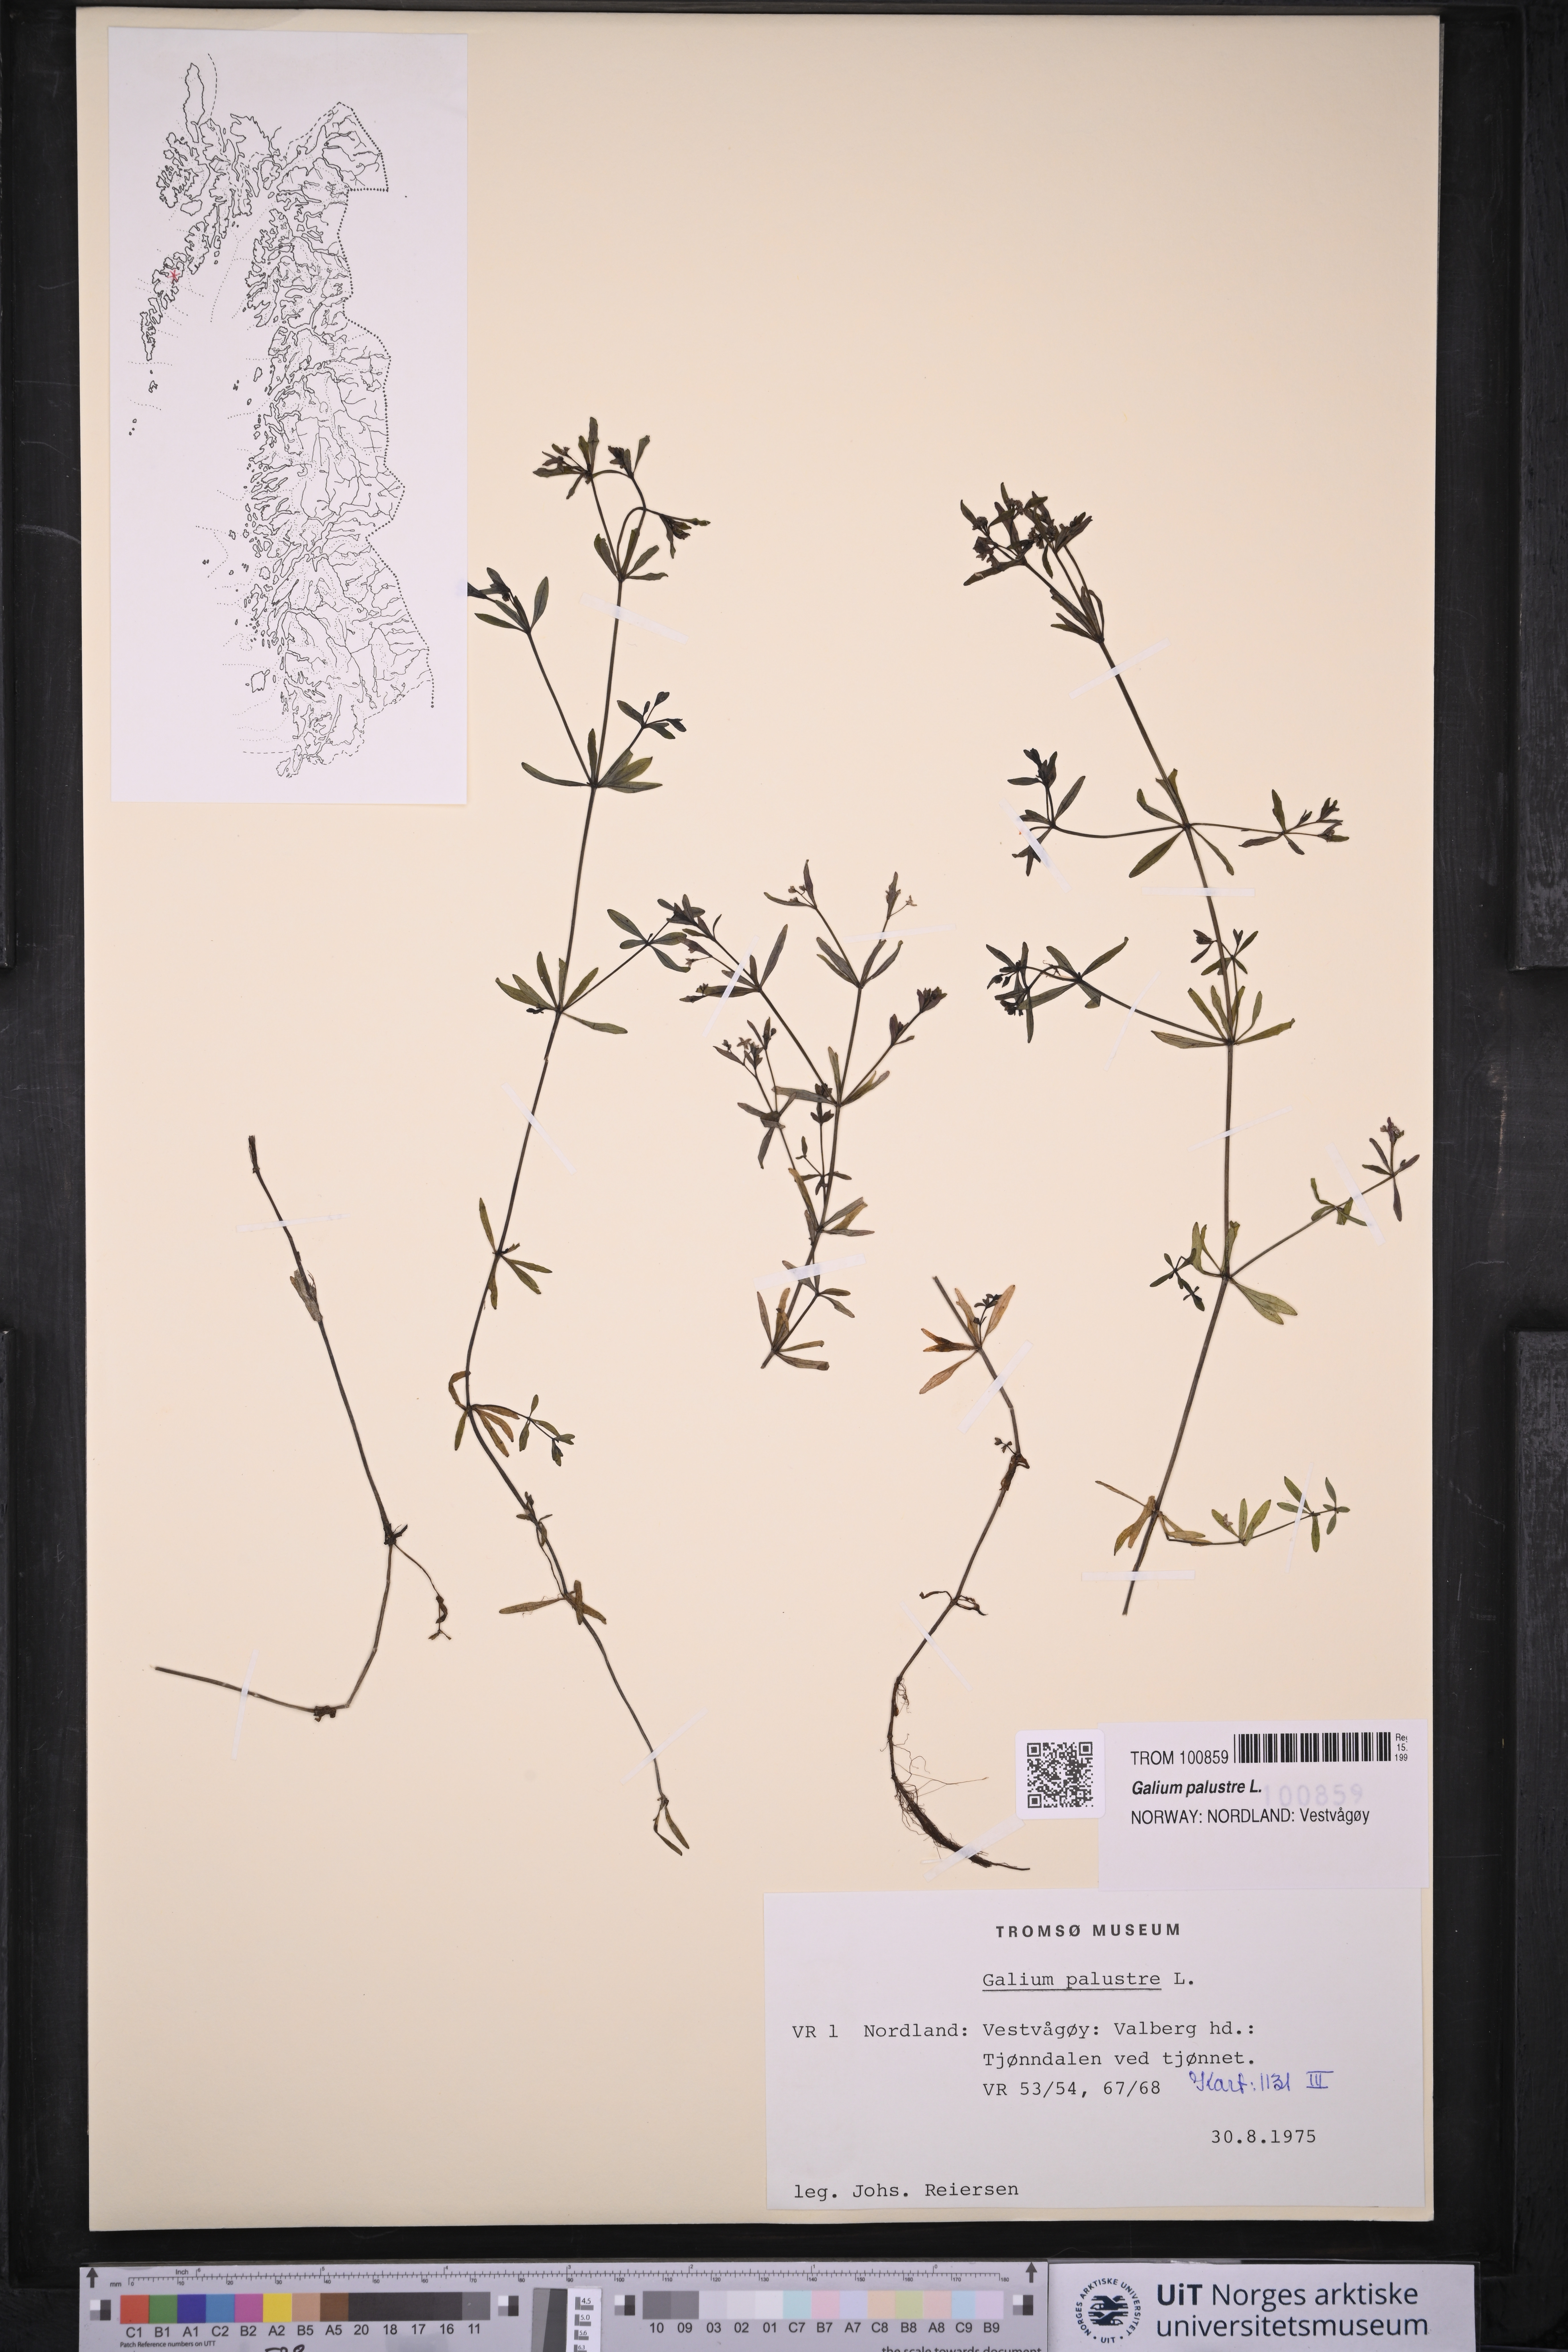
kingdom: Plantae
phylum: Tracheophyta
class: Magnoliopsida
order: Gentianales
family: Rubiaceae
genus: Galium
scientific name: Galium palustre
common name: Common marsh-bedstraw
